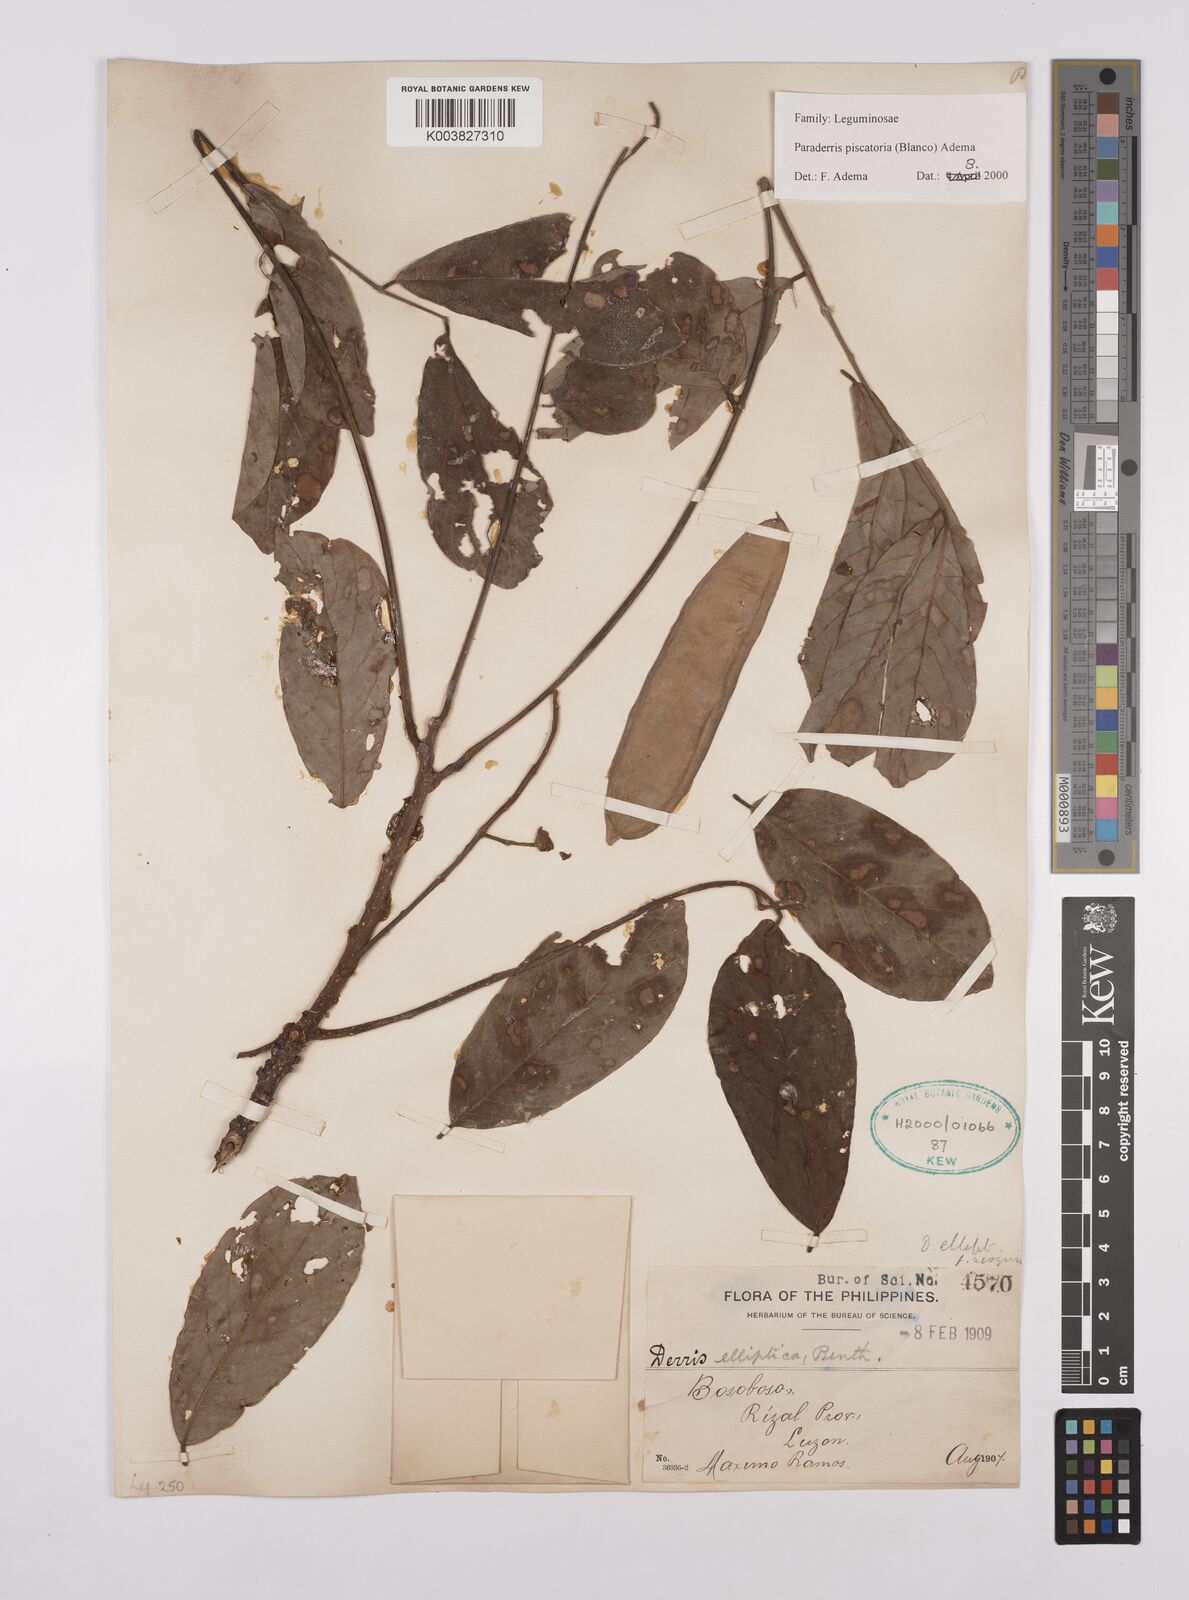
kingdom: Plantae
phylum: Tracheophyta
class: Magnoliopsida
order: Fabales
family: Fabaceae
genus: Derris
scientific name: Derris piscatoria
